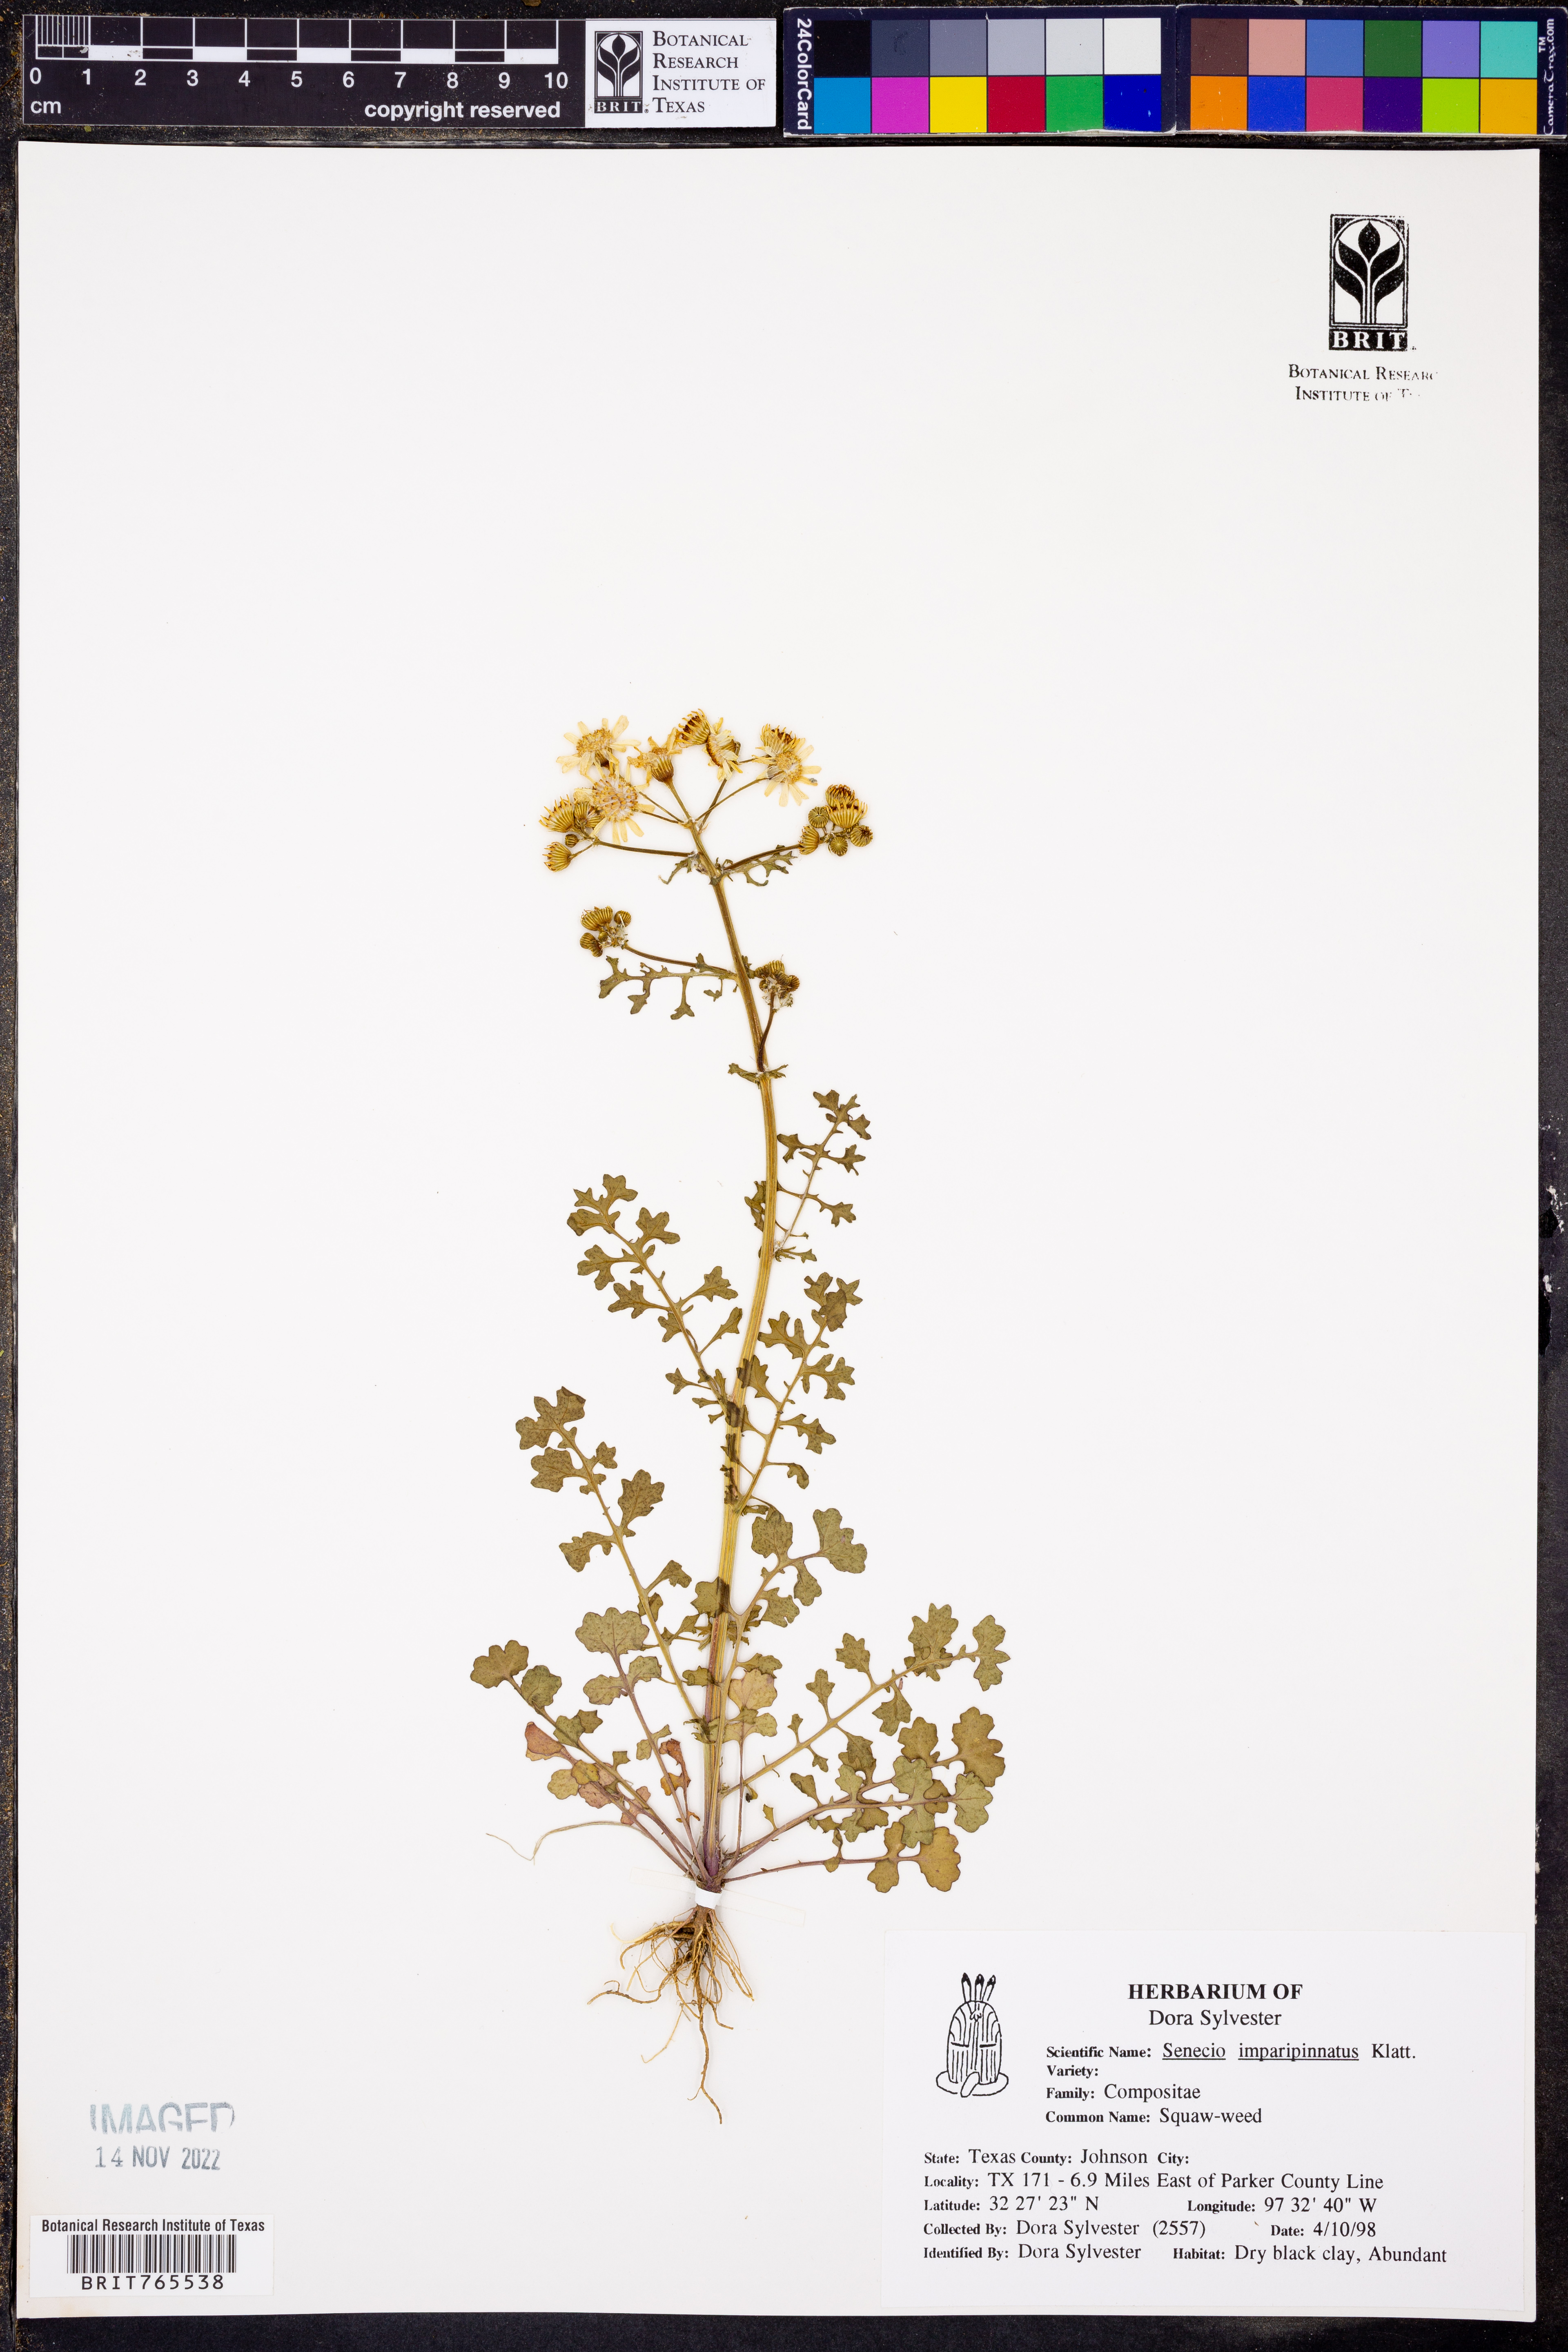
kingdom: Plantae
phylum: Tracheophyta
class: Magnoliopsida
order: Asterales
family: Asteraceae
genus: Packera
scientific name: Packera tampicana
